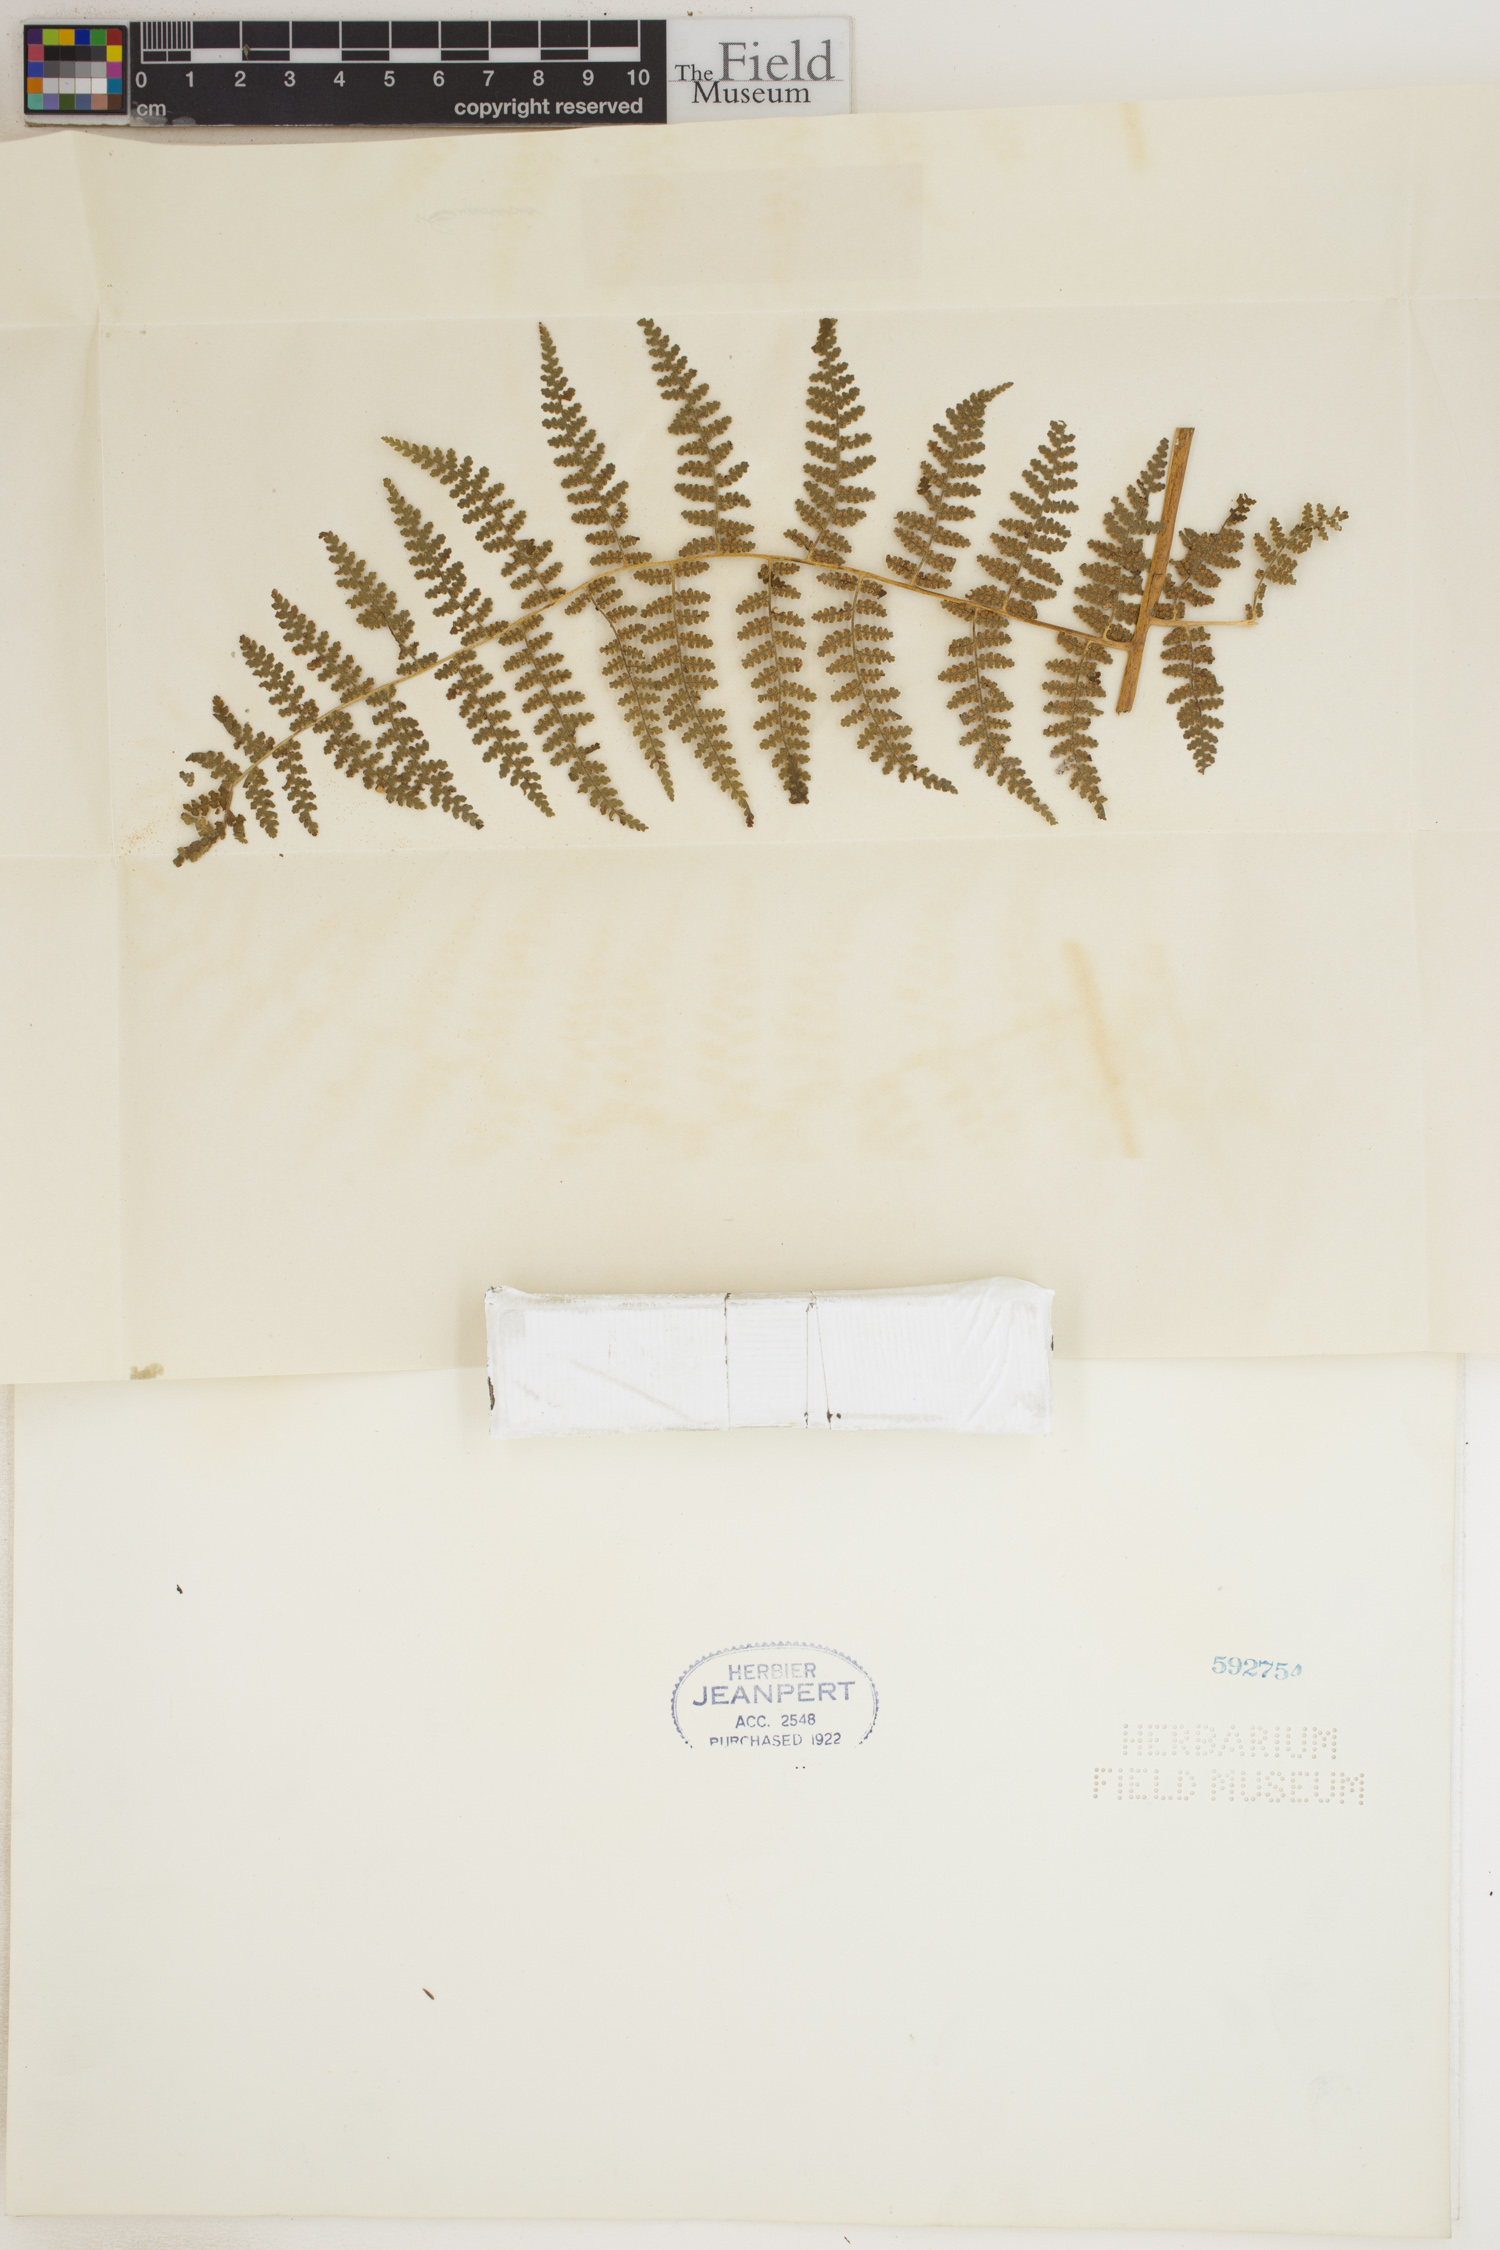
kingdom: Plantae
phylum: Tracheophyta
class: Polypodiopsida
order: Polypodiales
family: Dennstaedtiaceae
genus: Hypolepis
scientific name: Hypolepis sparsisora
